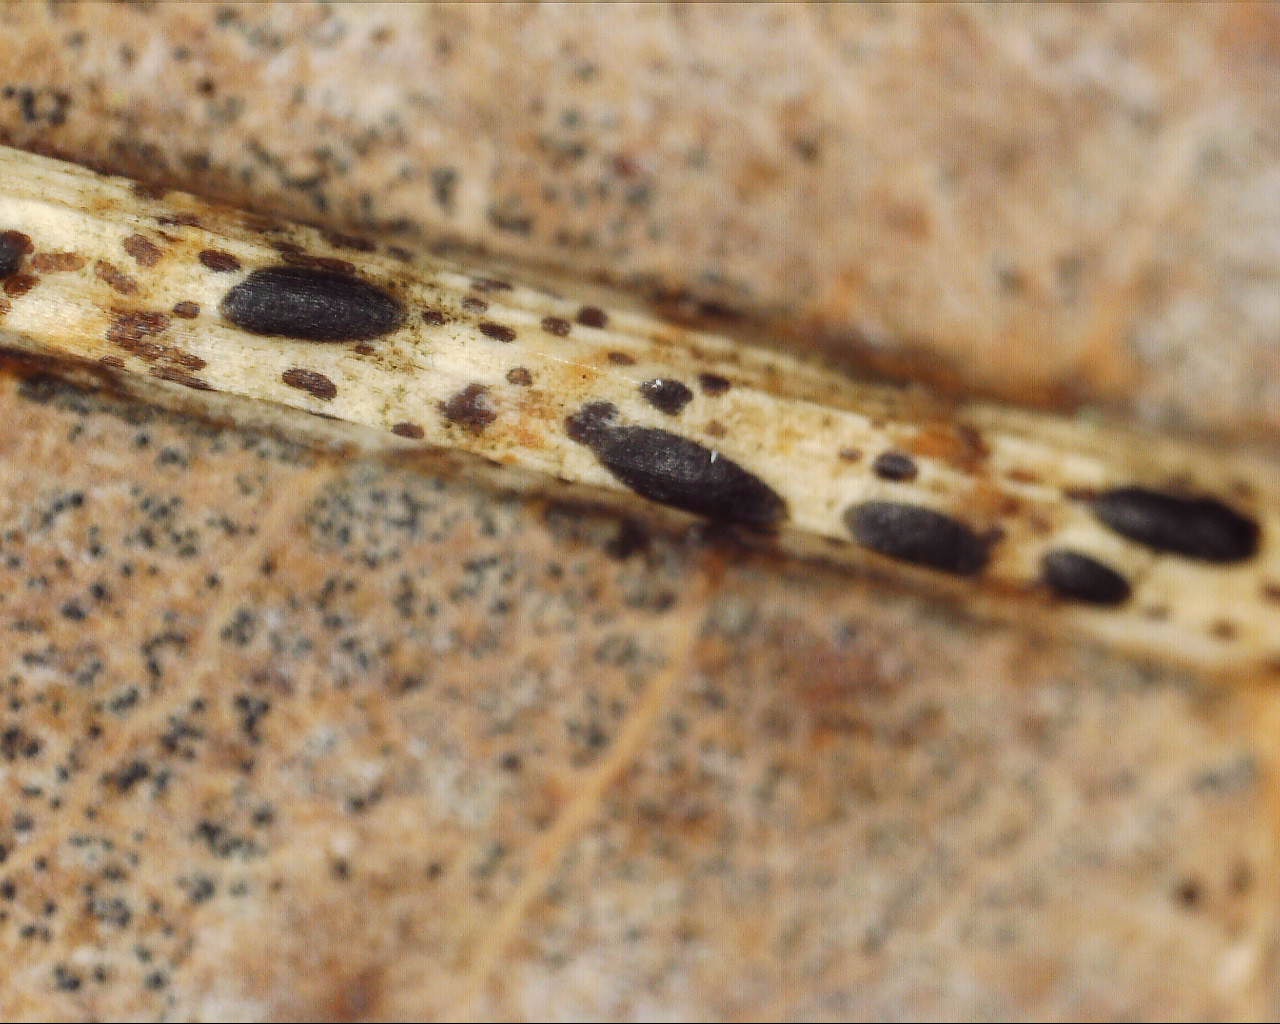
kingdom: Fungi
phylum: Ascomycota
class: Leotiomycetes
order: Rhytismatales
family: Rhytismataceae
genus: Lophodermium
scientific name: Lophodermium petiolicola
